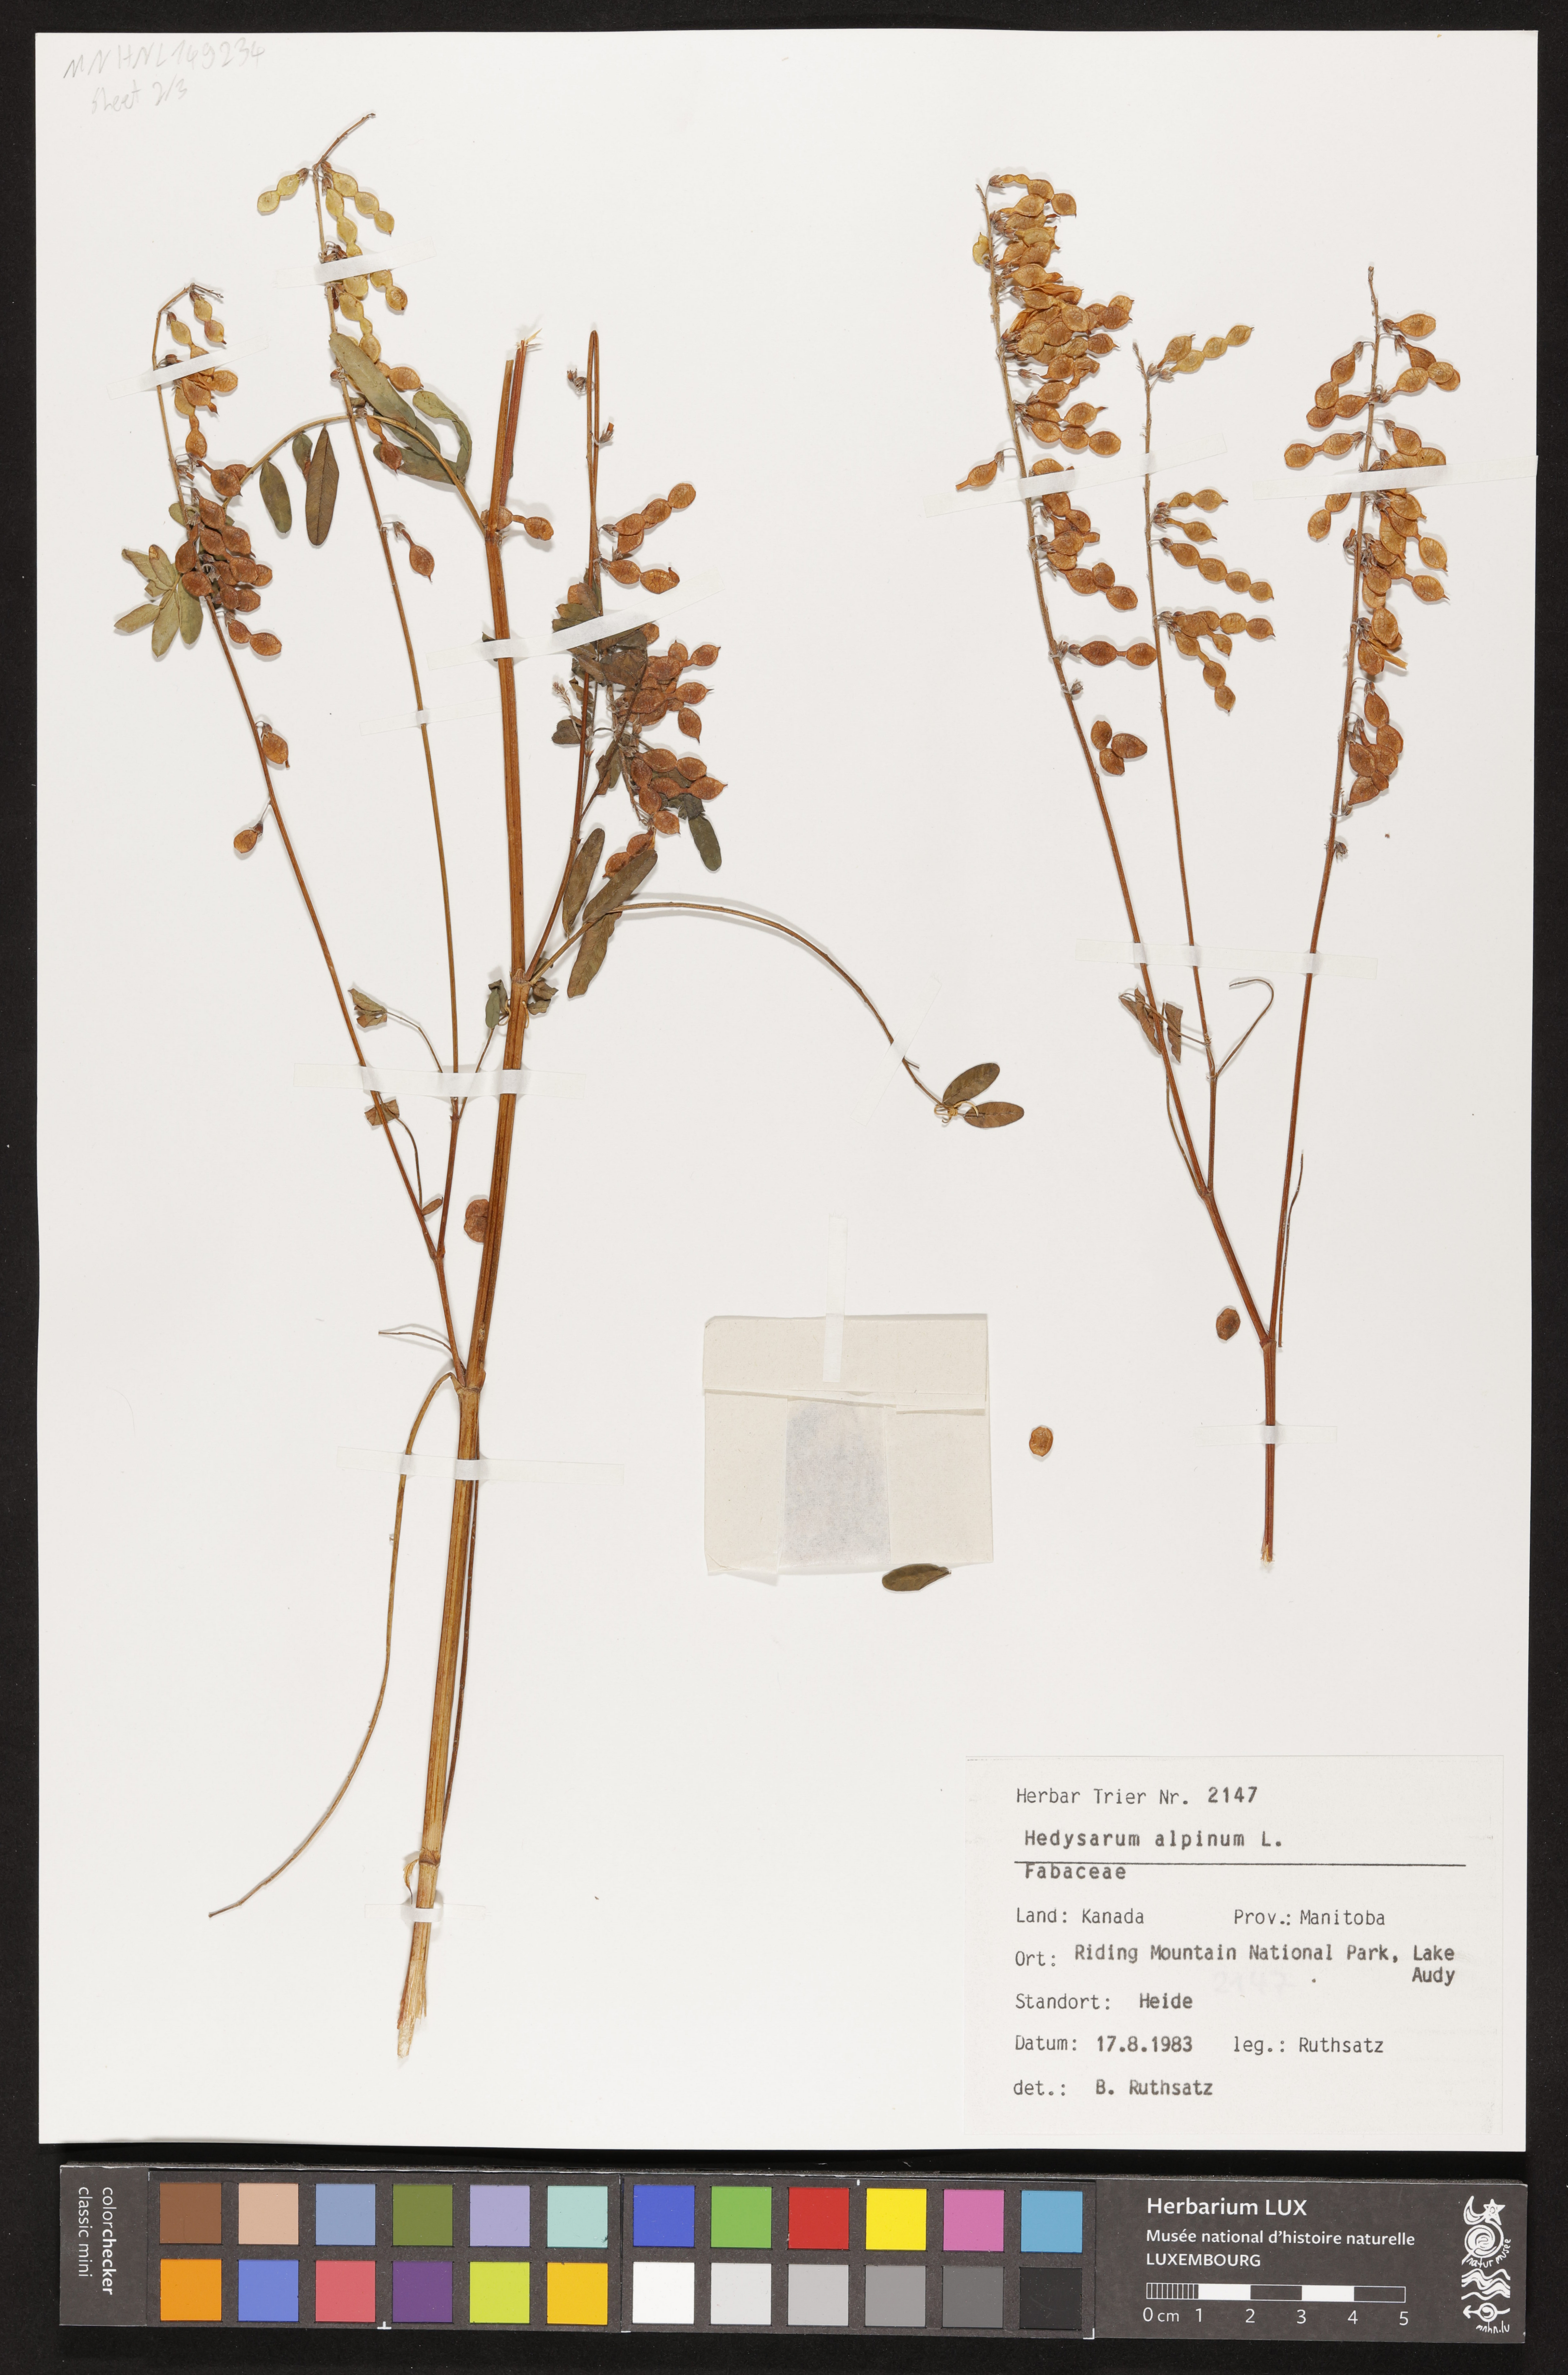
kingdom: Plantae
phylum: Tracheophyta
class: Magnoliopsida
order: Fabales
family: Fabaceae
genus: Hedysarum
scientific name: Hedysarum alpinum
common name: Alpine sweet-vetch
